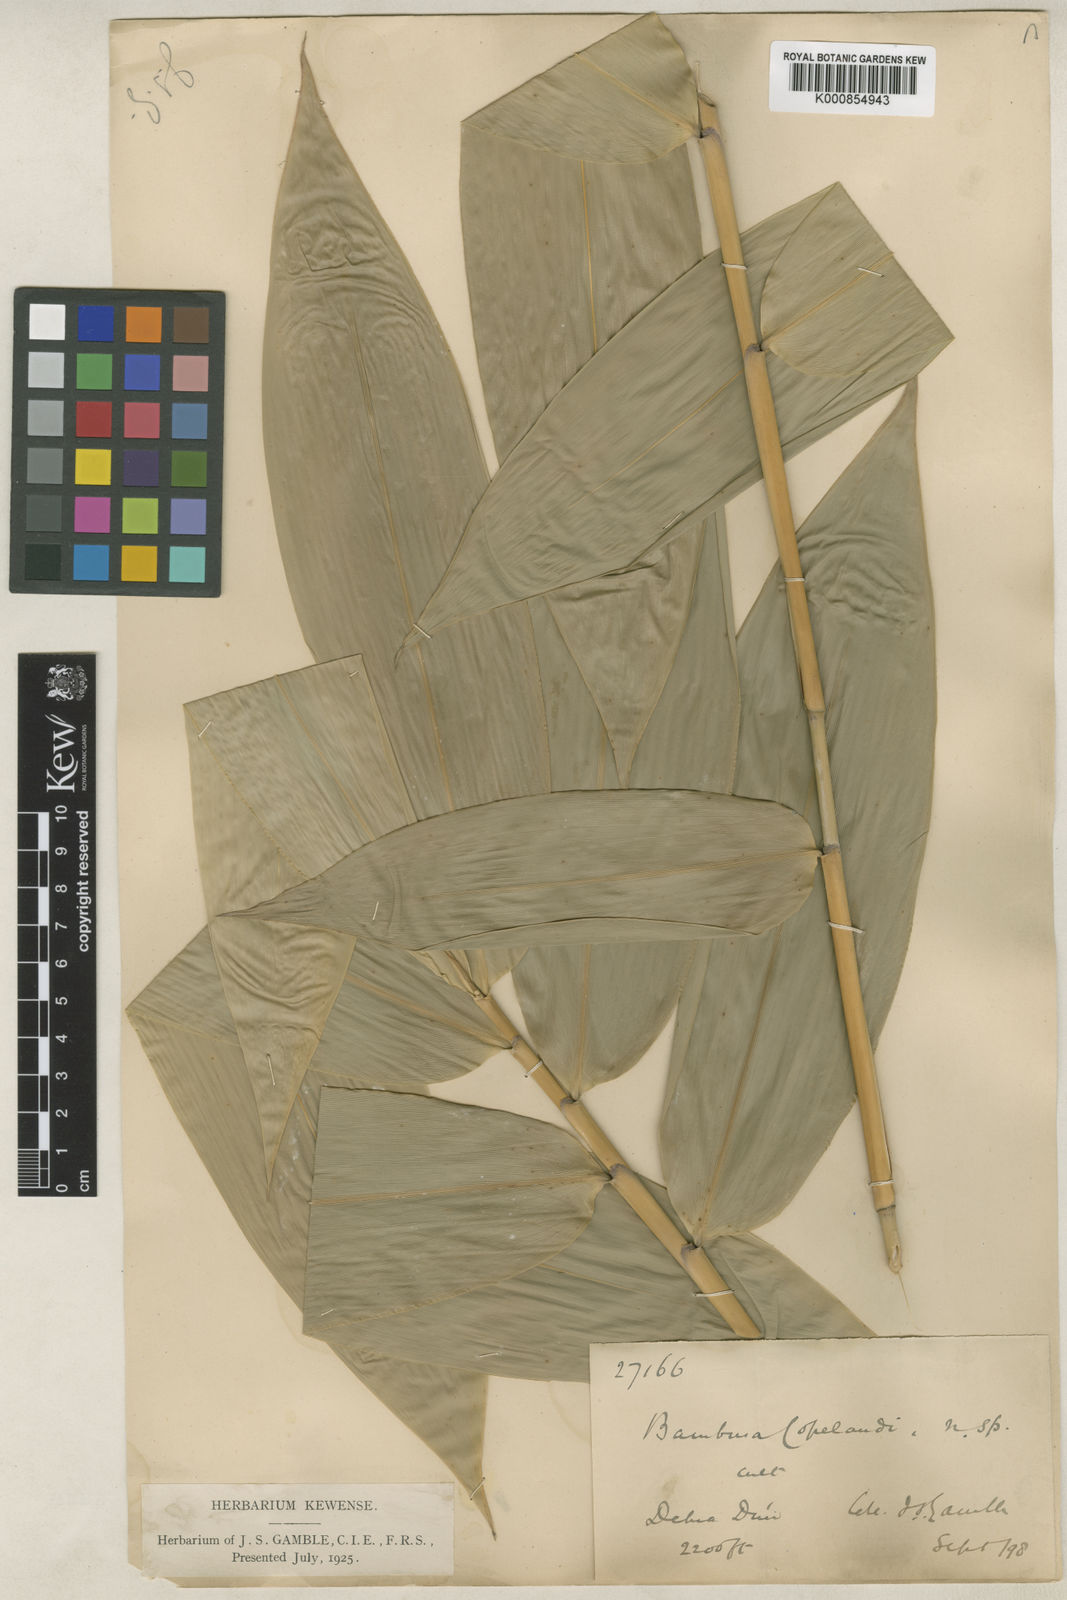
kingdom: Plantae
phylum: Tracheophyta
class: Liliopsida
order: Poales
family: Poaceae
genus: Bambusa
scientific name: Bambusa copelandii
